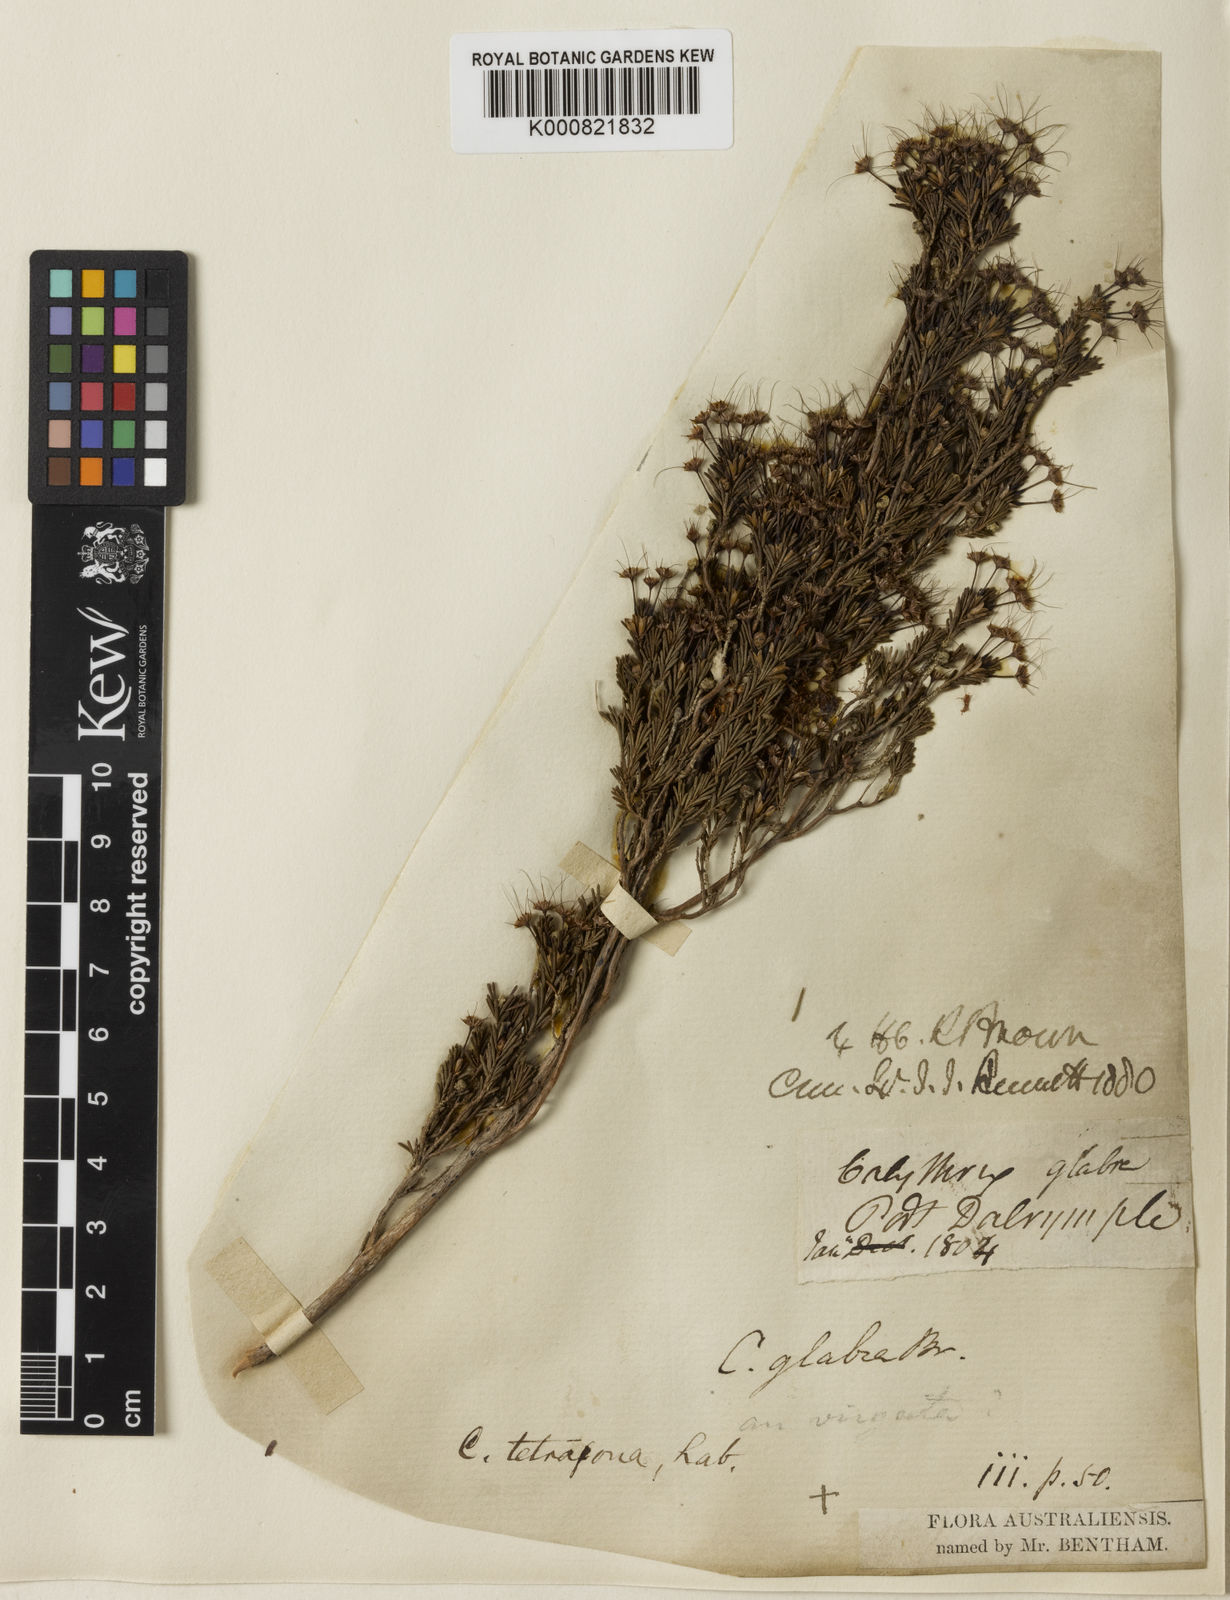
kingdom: Plantae
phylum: Tracheophyta
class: Magnoliopsida
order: Myrtales
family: Myrtaceae
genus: Calytrix
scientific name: Calytrix tetragona
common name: Common fringe myrtle
